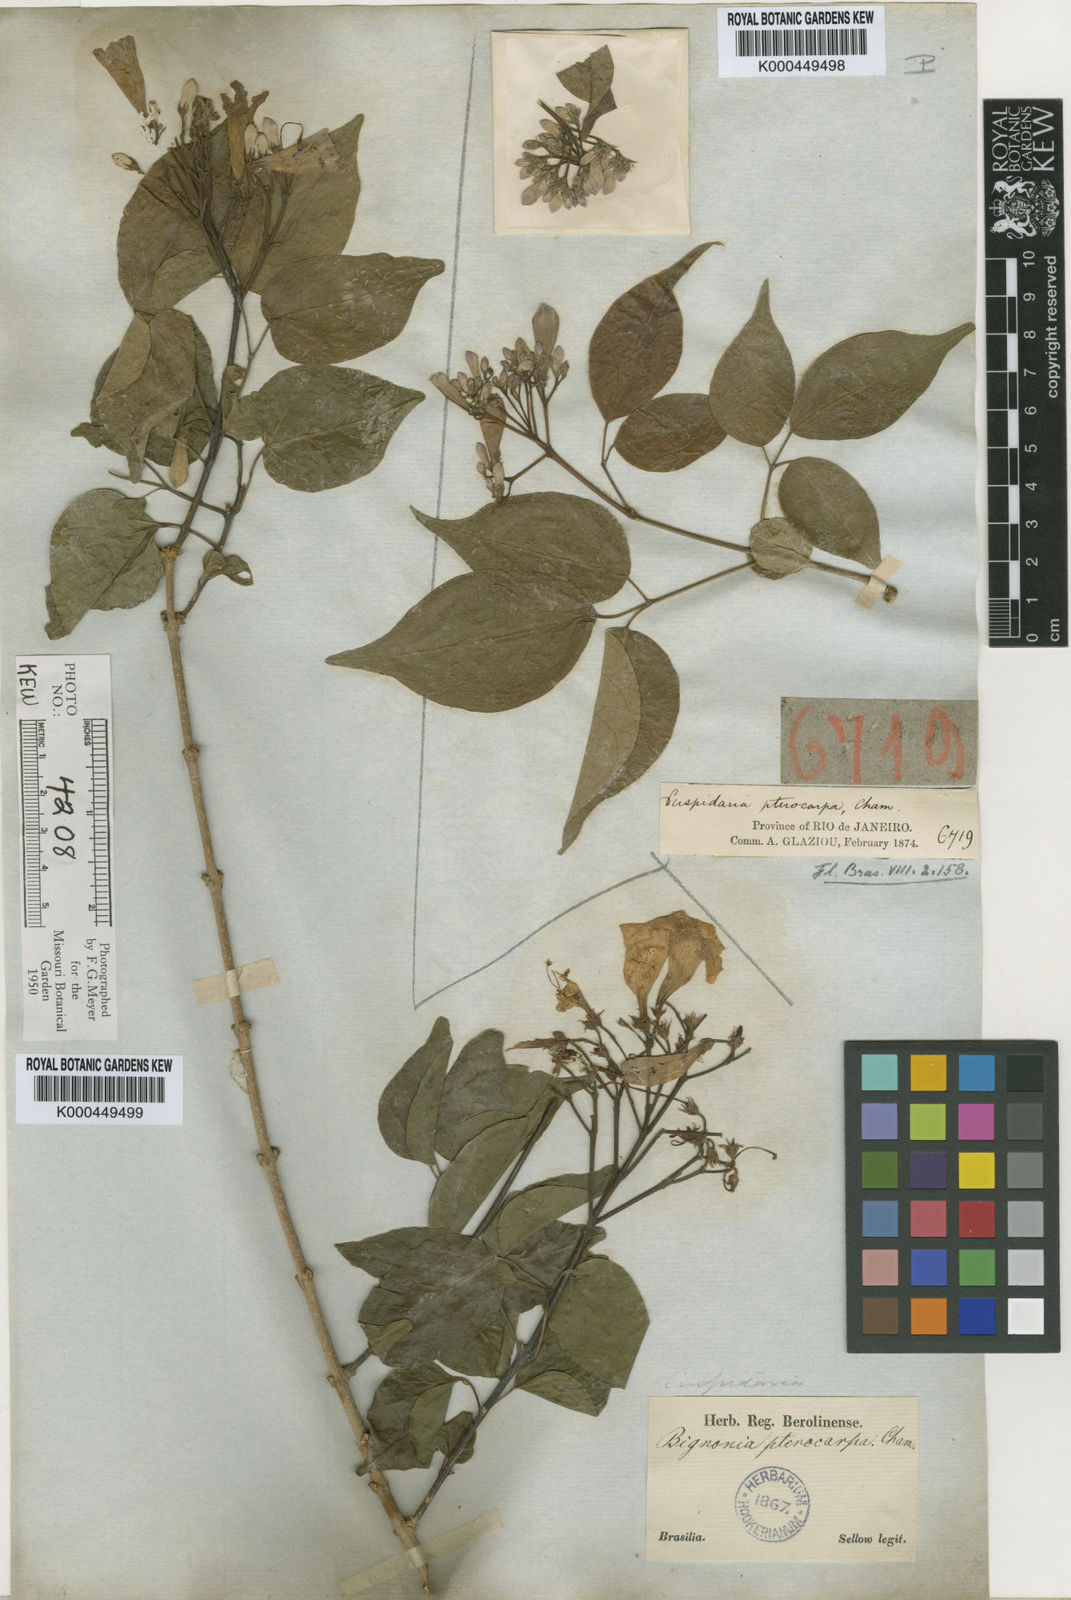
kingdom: Plantae
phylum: Tracheophyta
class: Magnoliopsida
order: Lamiales
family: Bignoniaceae
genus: Cuspidaria
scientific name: Cuspidaria convoluta
